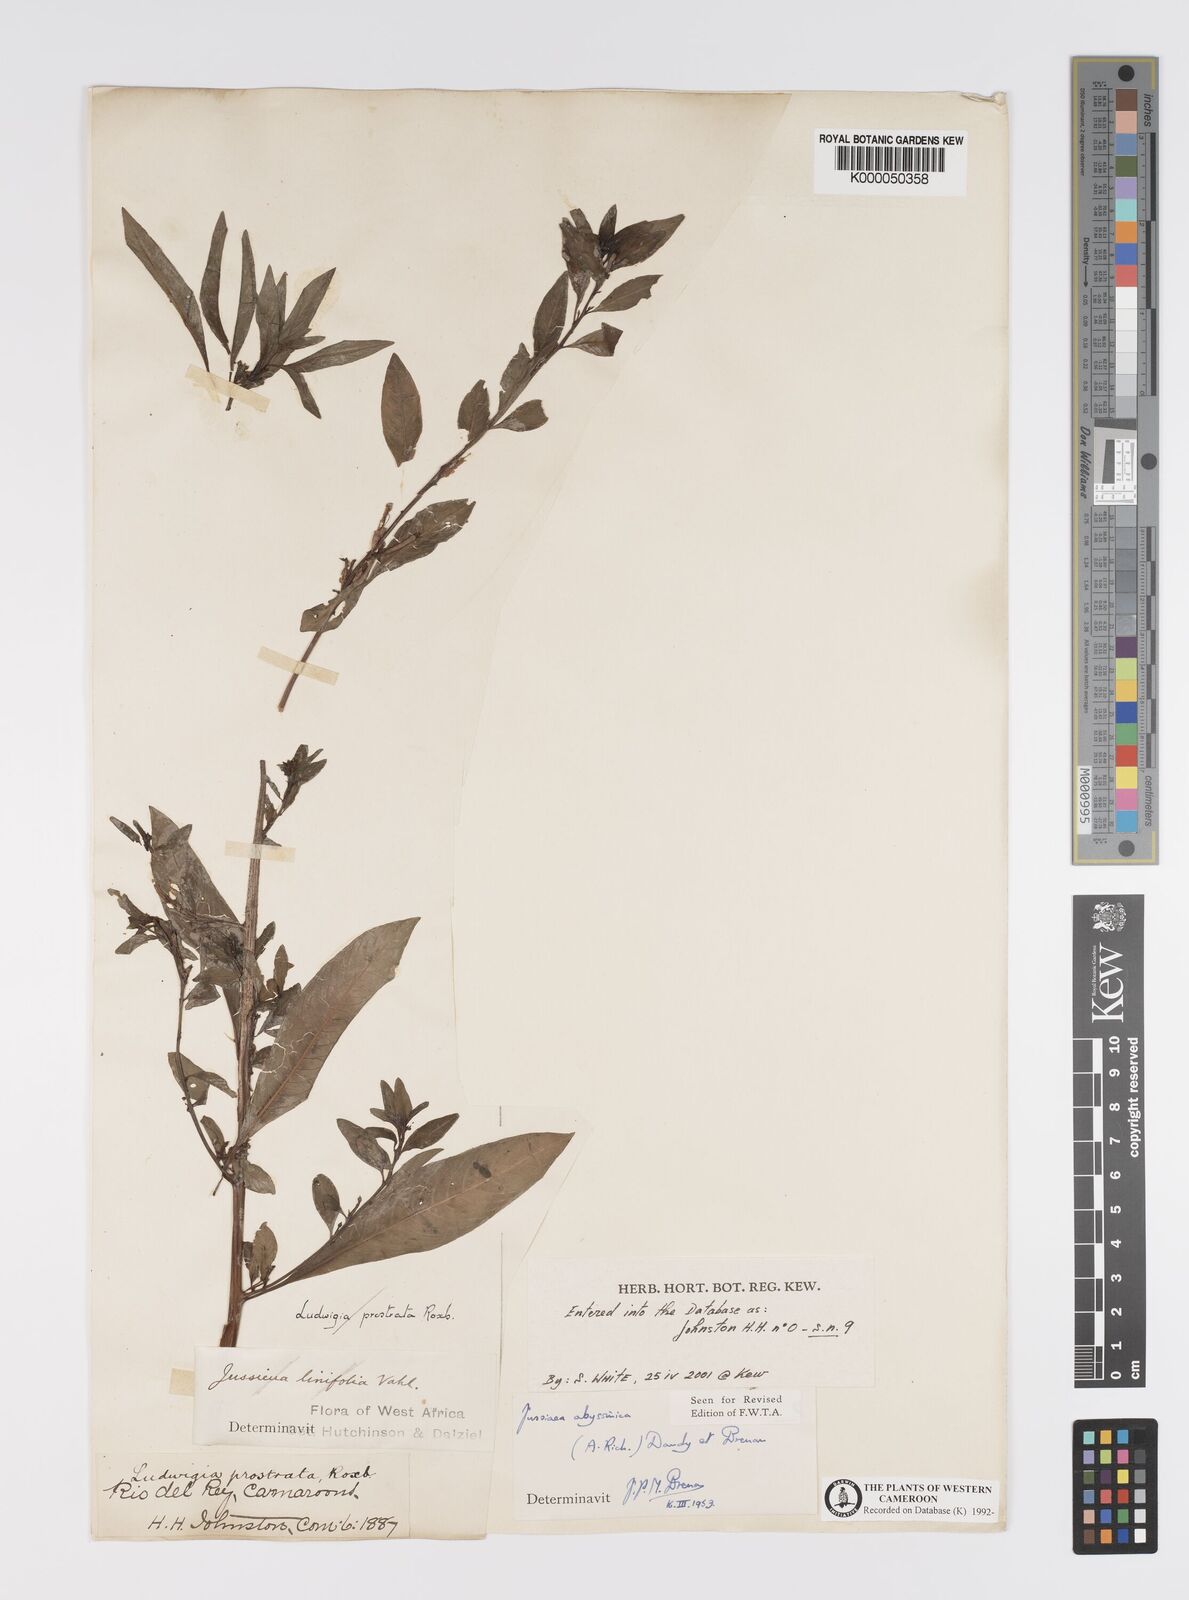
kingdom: Plantae
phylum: Tracheophyta
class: Magnoliopsida
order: Myrtales
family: Onagraceae
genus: Ludwigia
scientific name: Ludwigia abyssinica
